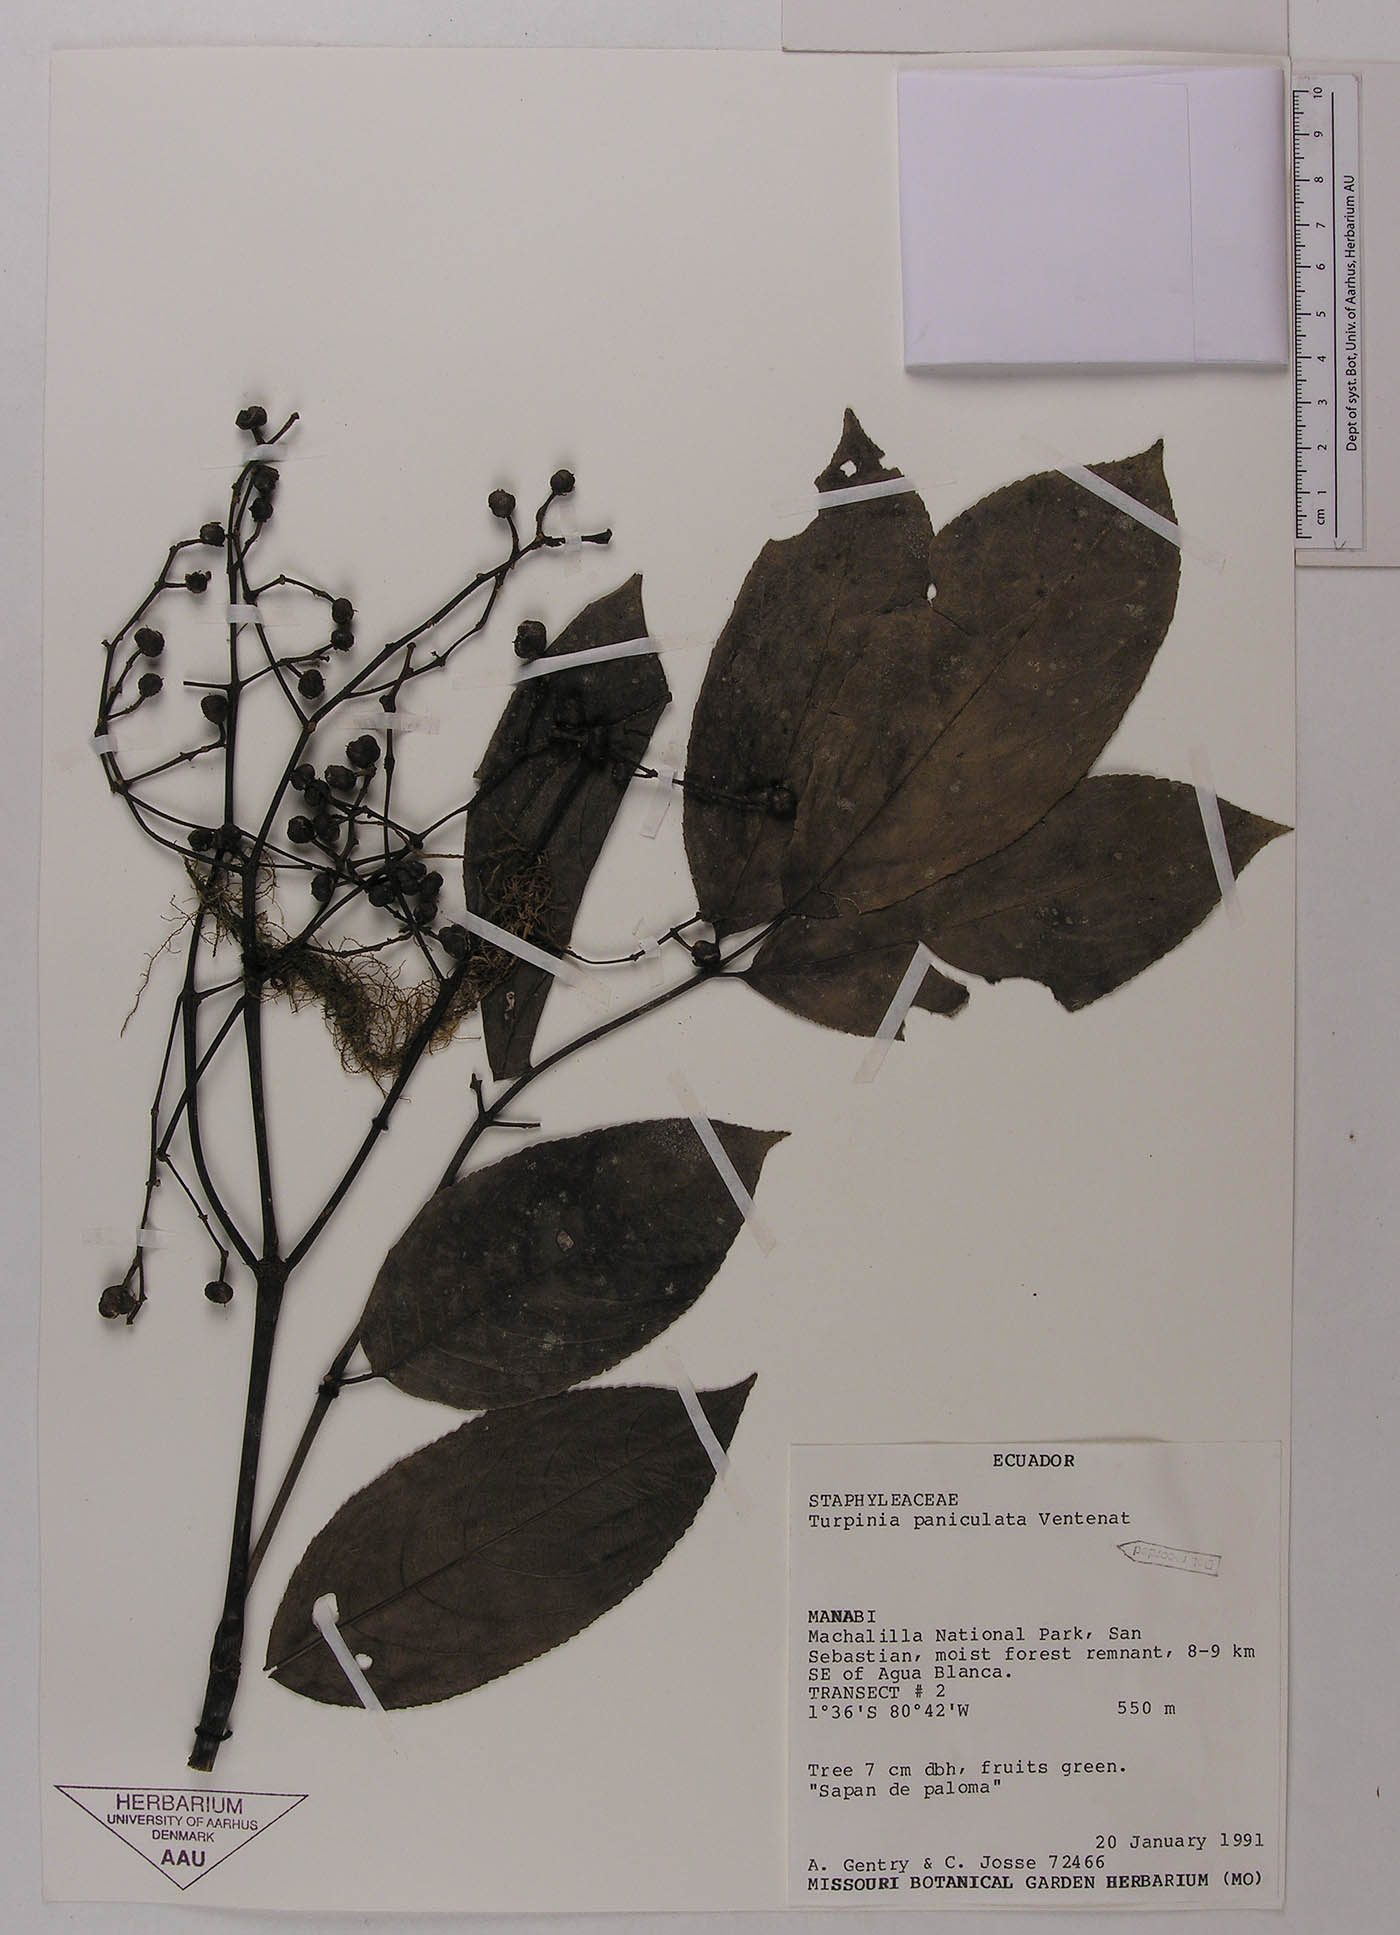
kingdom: Plantae
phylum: Tracheophyta
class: Magnoliopsida
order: Crossosomatales
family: Staphyleaceae
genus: Turpinia
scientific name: Turpinia occidentalis
